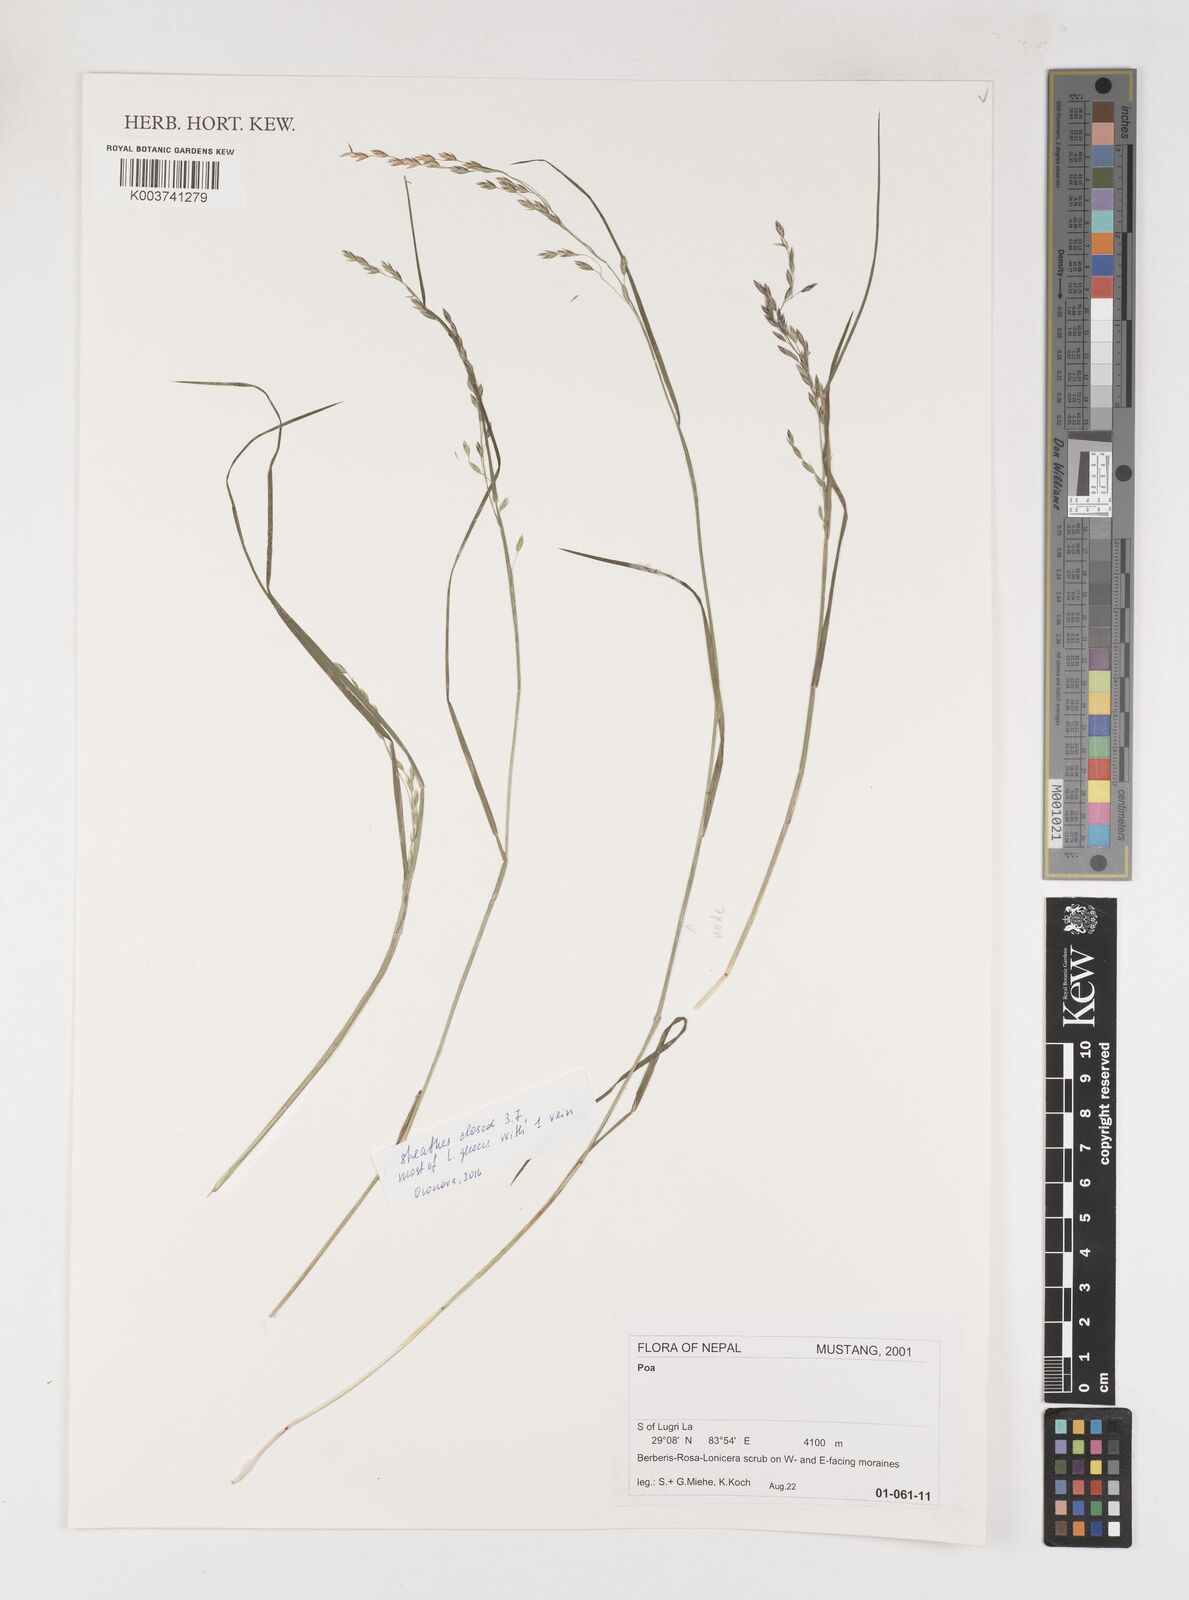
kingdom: Plantae
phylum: Tracheophyta
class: Liliopsida
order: Poales
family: Poaceae
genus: Poa
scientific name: Poa
